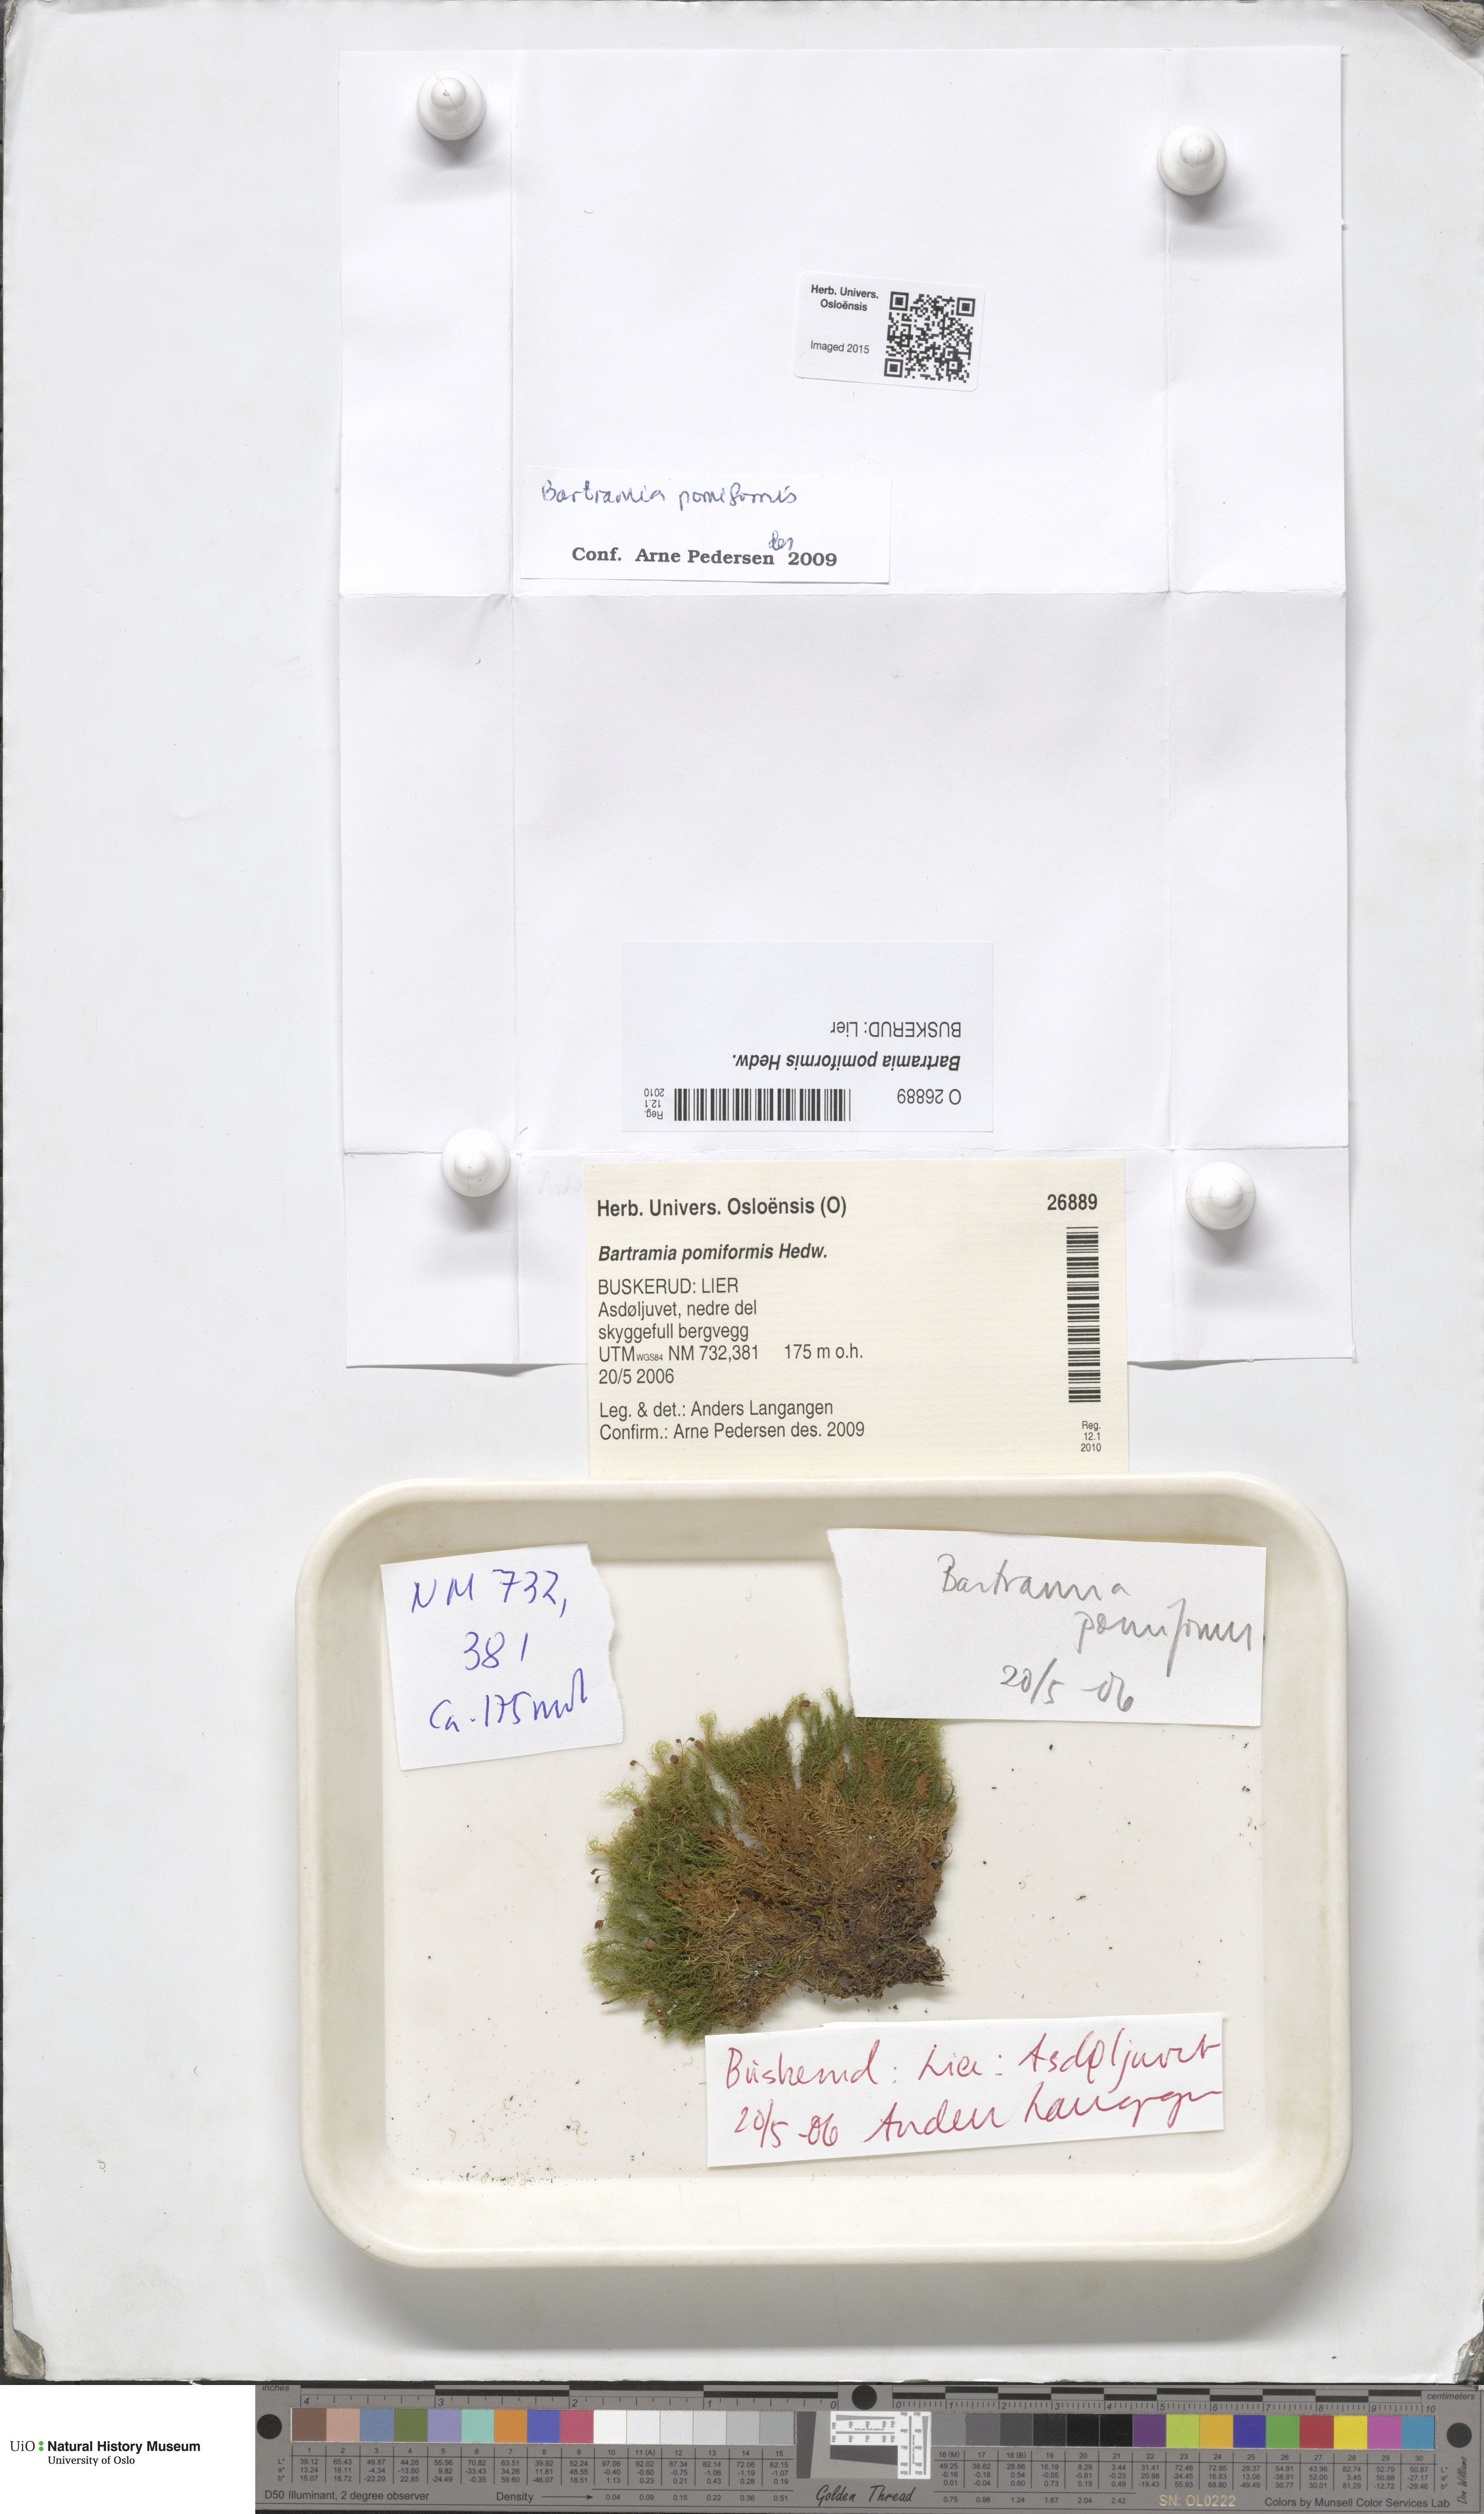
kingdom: Plantae
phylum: Bryophyta
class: Bryopsida
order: Bartramiales
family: Bartramiaceae
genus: Bartramia
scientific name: Bartramia pomiformis
